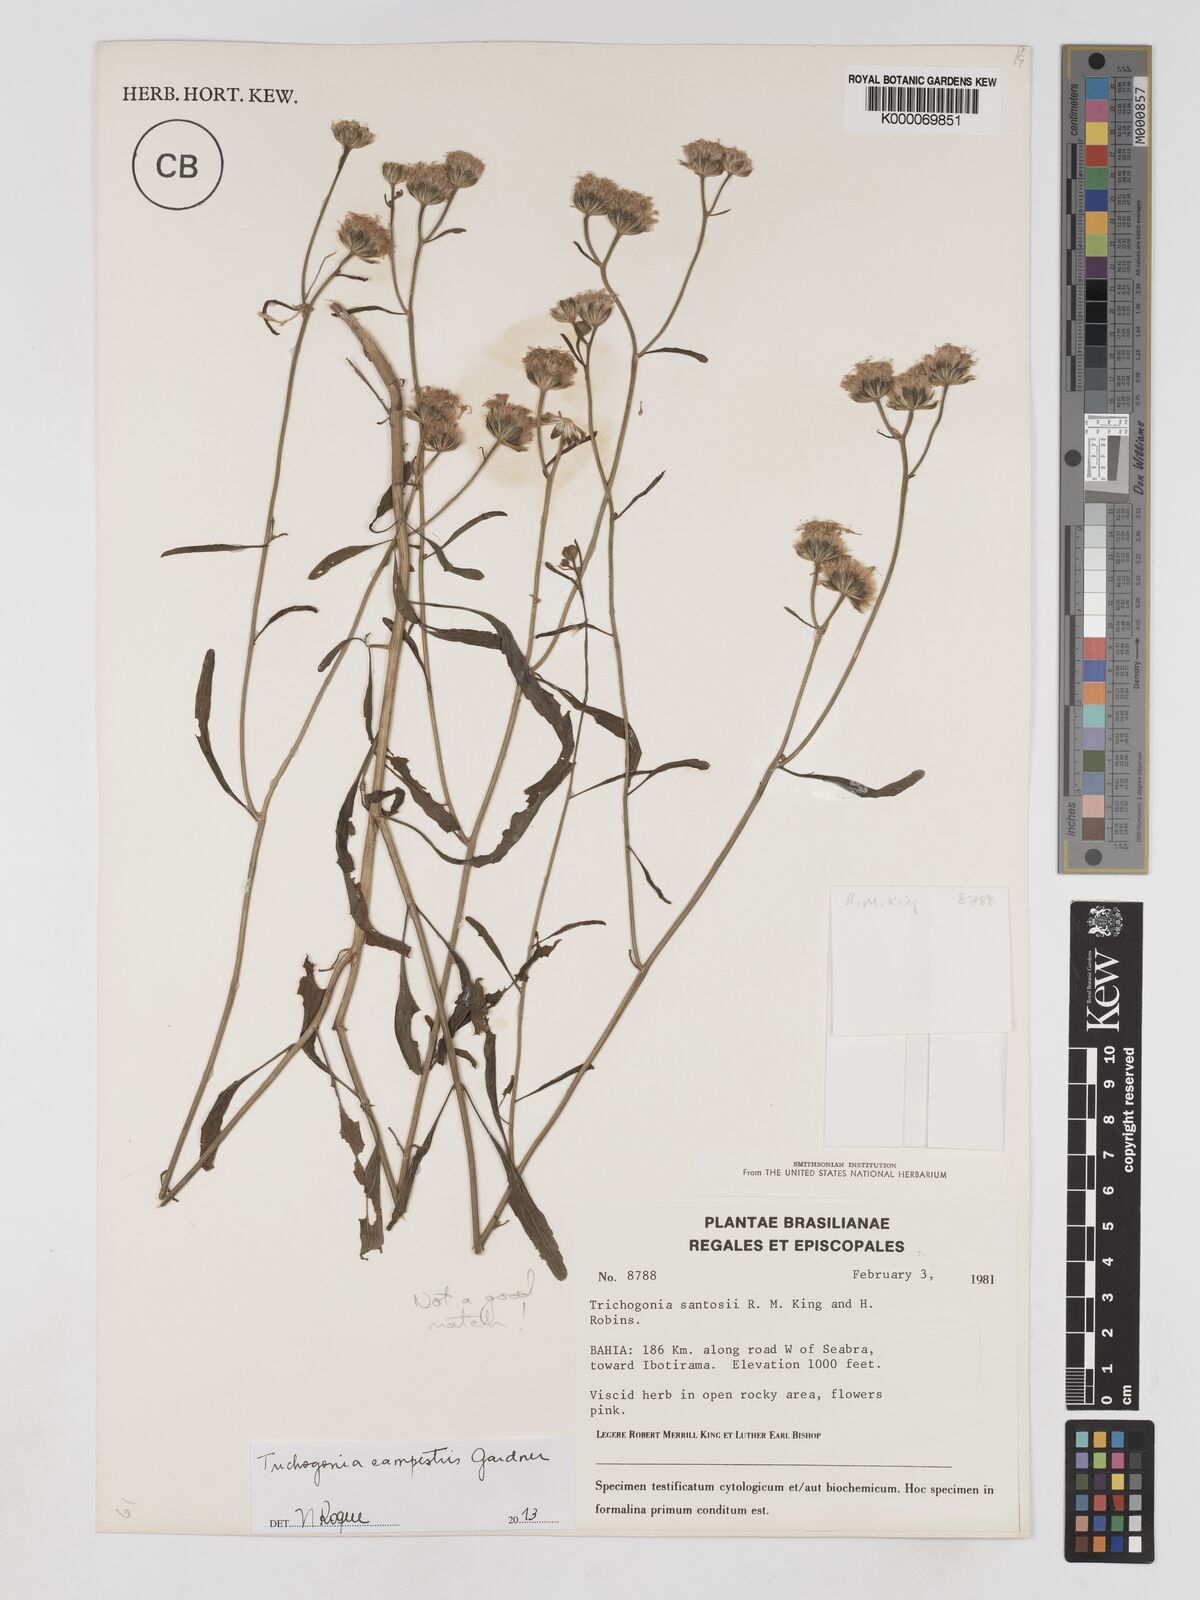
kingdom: Plantae
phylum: Tracheophyta
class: Magnoliopsida
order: Asterales
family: Asteraceae
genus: Trichogonia
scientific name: Trichogonia santosii
